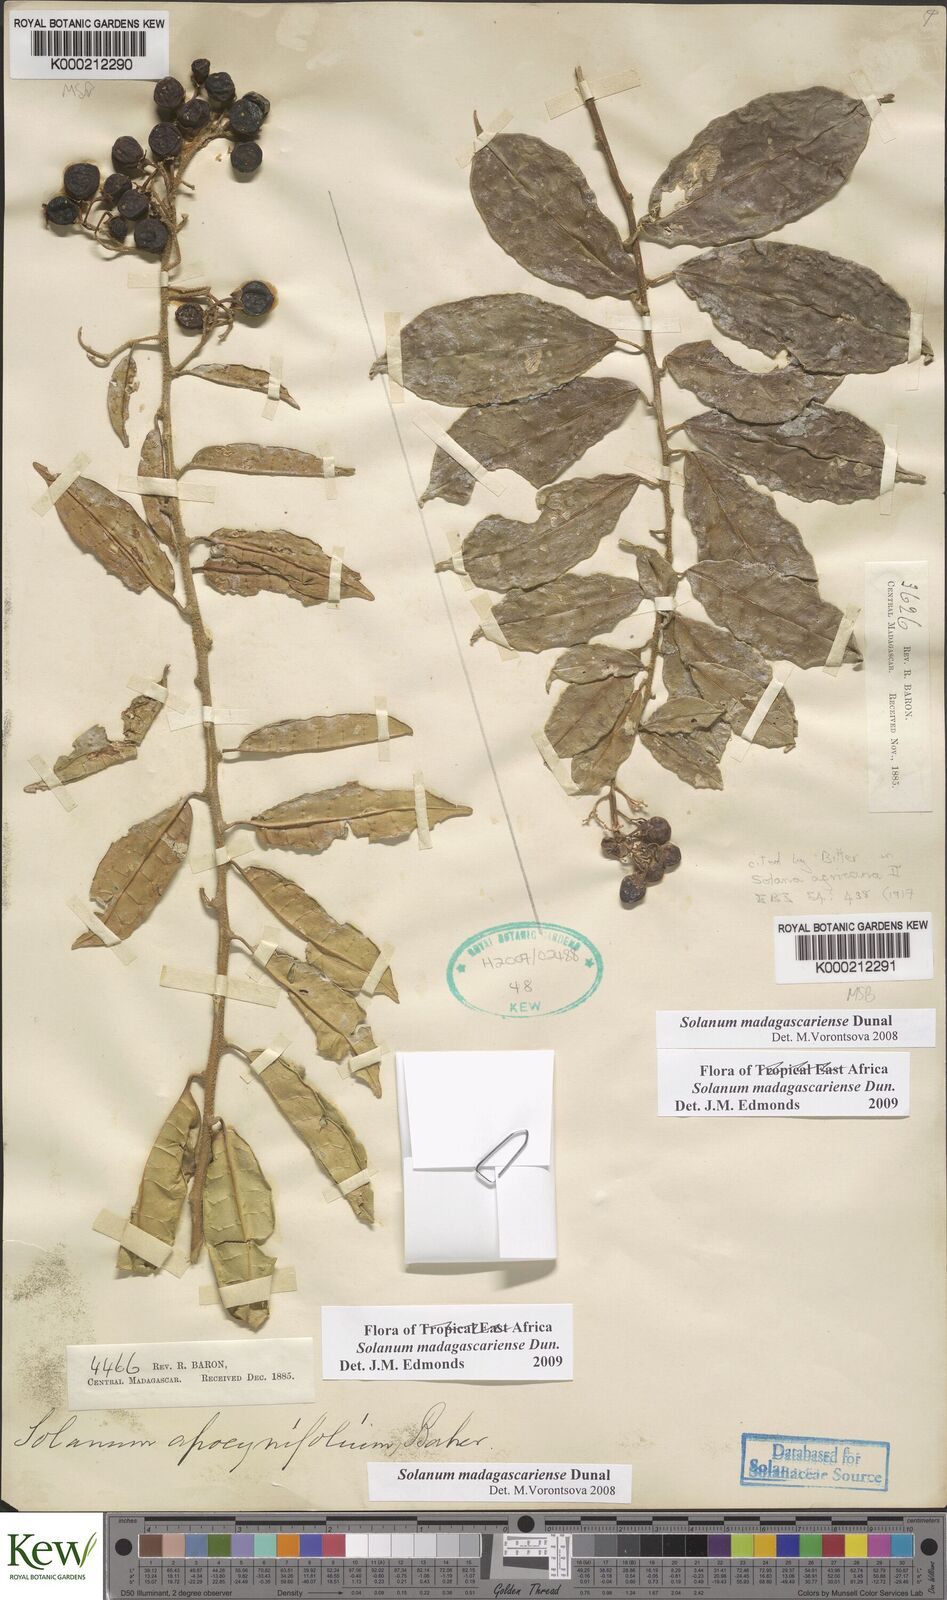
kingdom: Plantae
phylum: Tracheophyta
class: Magnoliopsida
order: Solanales
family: Solanaceae
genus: Solanum
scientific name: Solanum madagascariense
